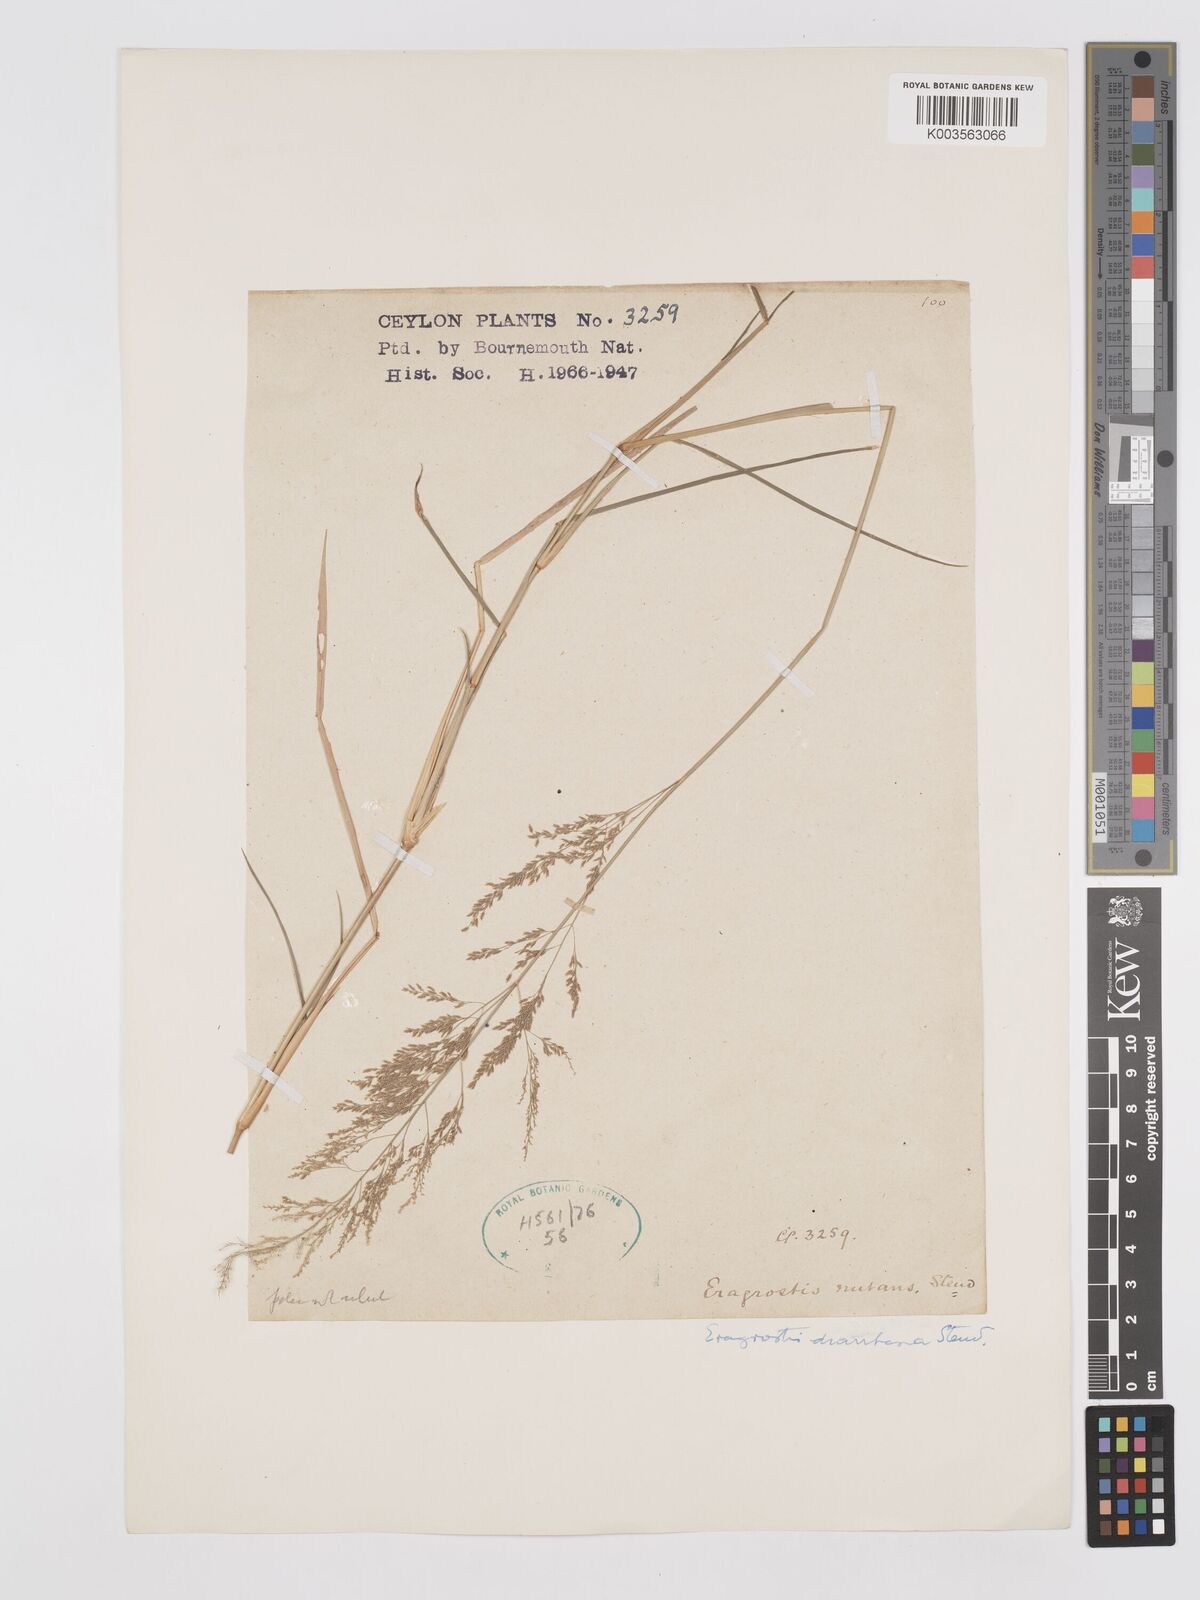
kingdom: Plantae
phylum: Tracheophyta
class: Liliopsida
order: Poales
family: Poaceae
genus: Eragrostis
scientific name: Eragrostis japonica
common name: Pond lovegrass
